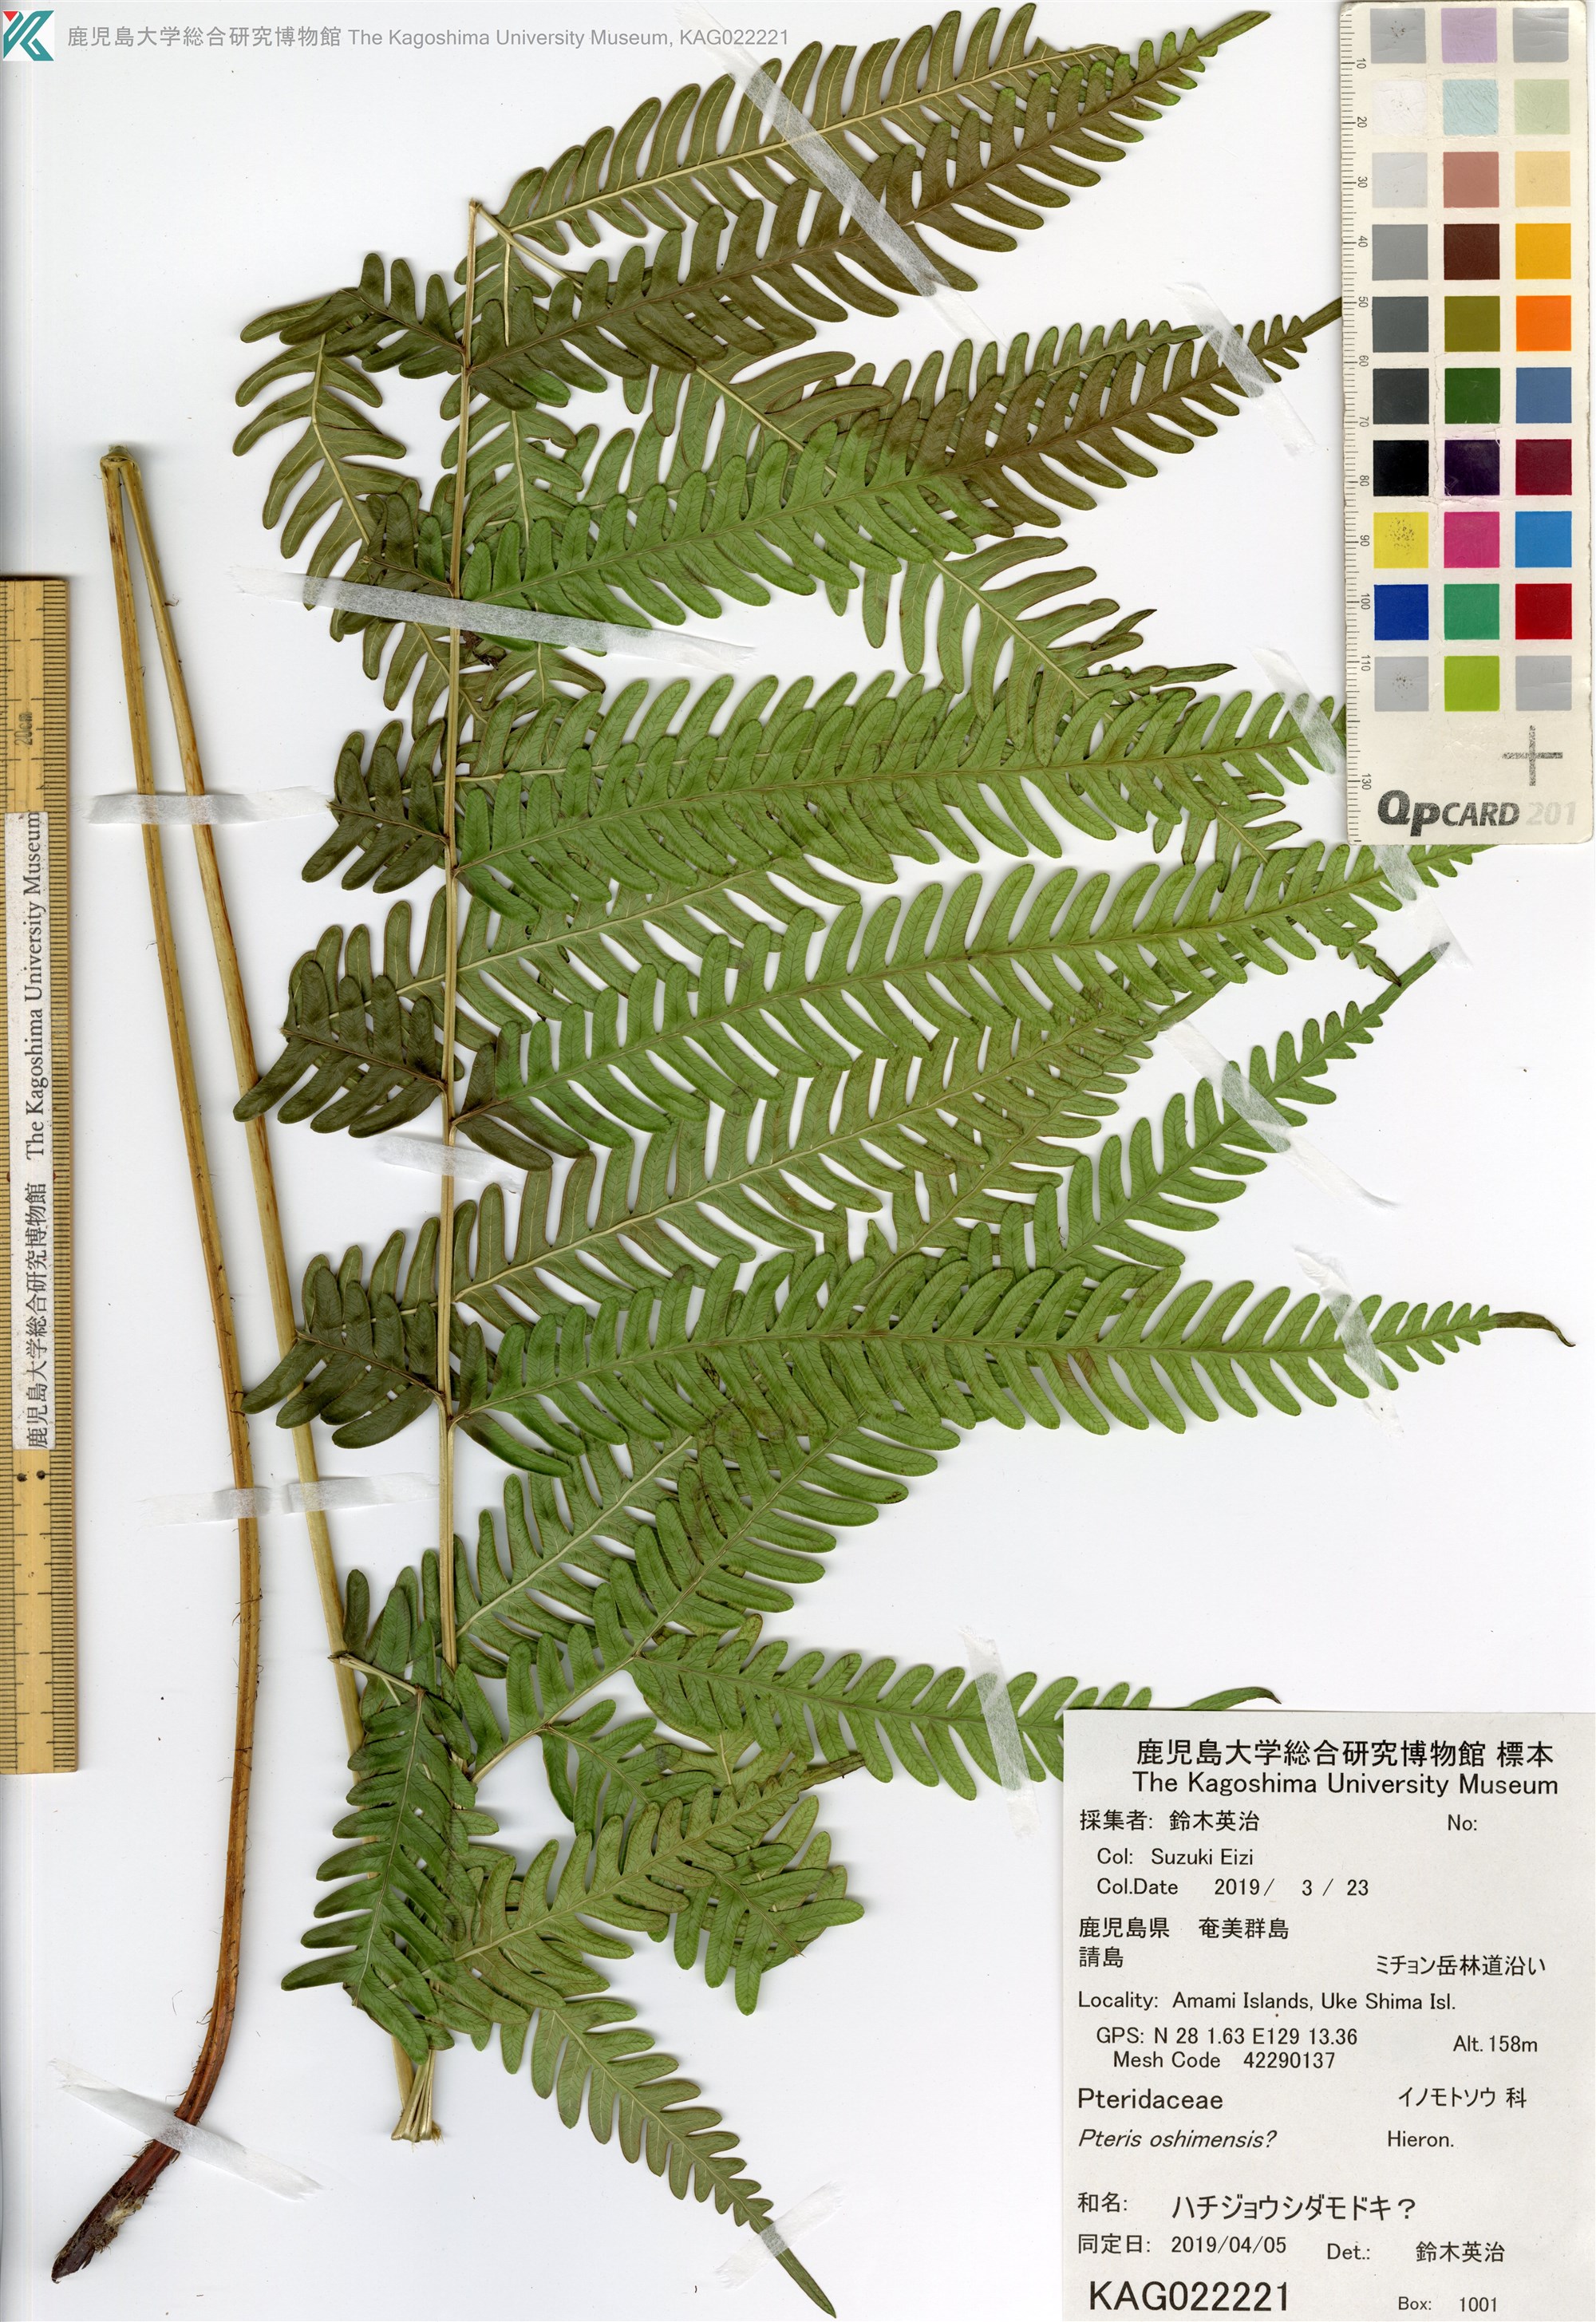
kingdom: Plantae
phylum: Tracheophyta
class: Polypodiopsida
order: Polypodiales
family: Pteridaceae
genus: Pteris
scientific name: Pteris oshimensis
